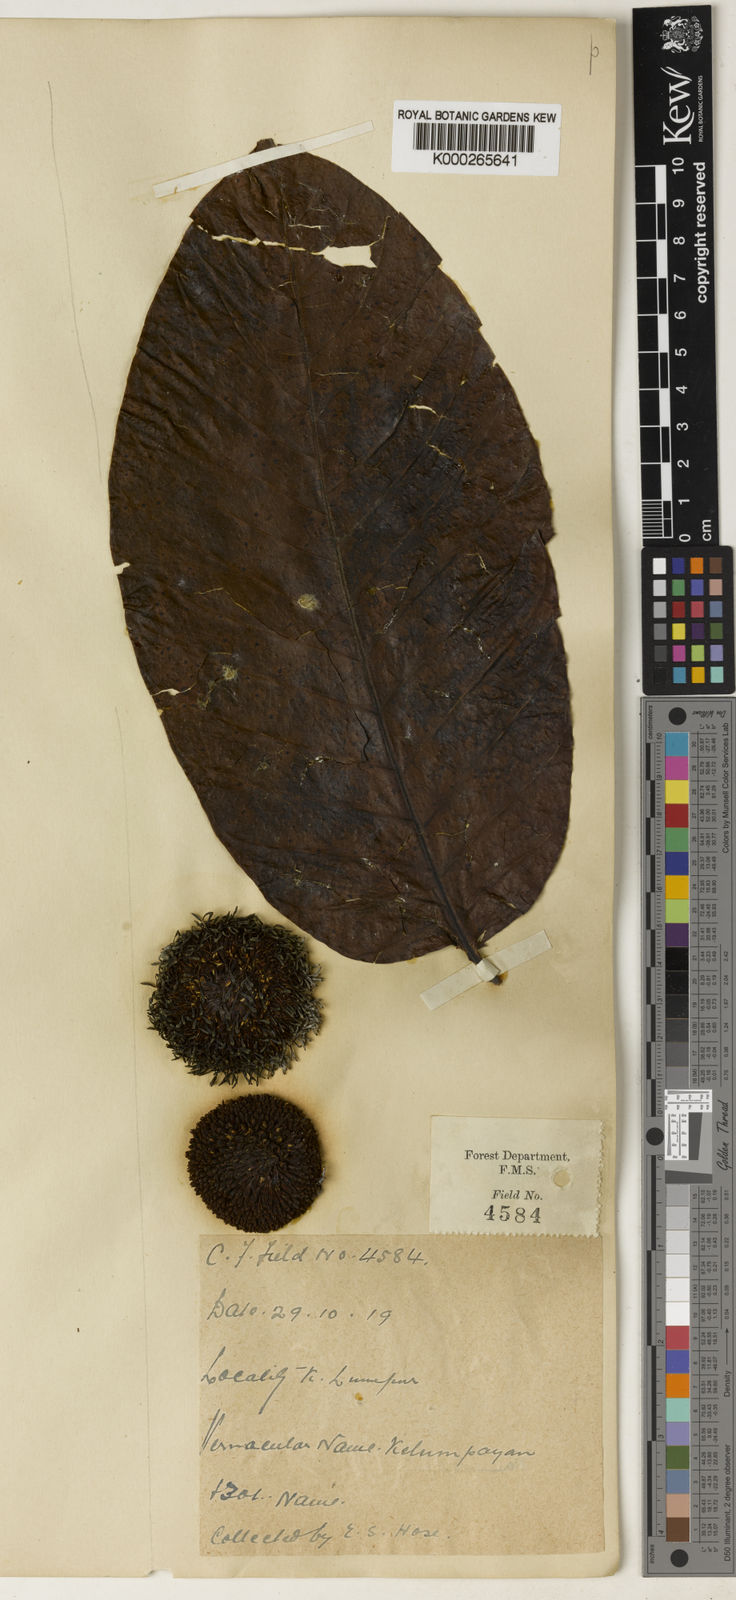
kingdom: Plantae
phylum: Tracheophyta
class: Magnoliopsida
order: Gentianales
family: Rubiaceae
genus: Neolamarckia
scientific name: Neolamarckia cadamba
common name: Leichhardt-pine
